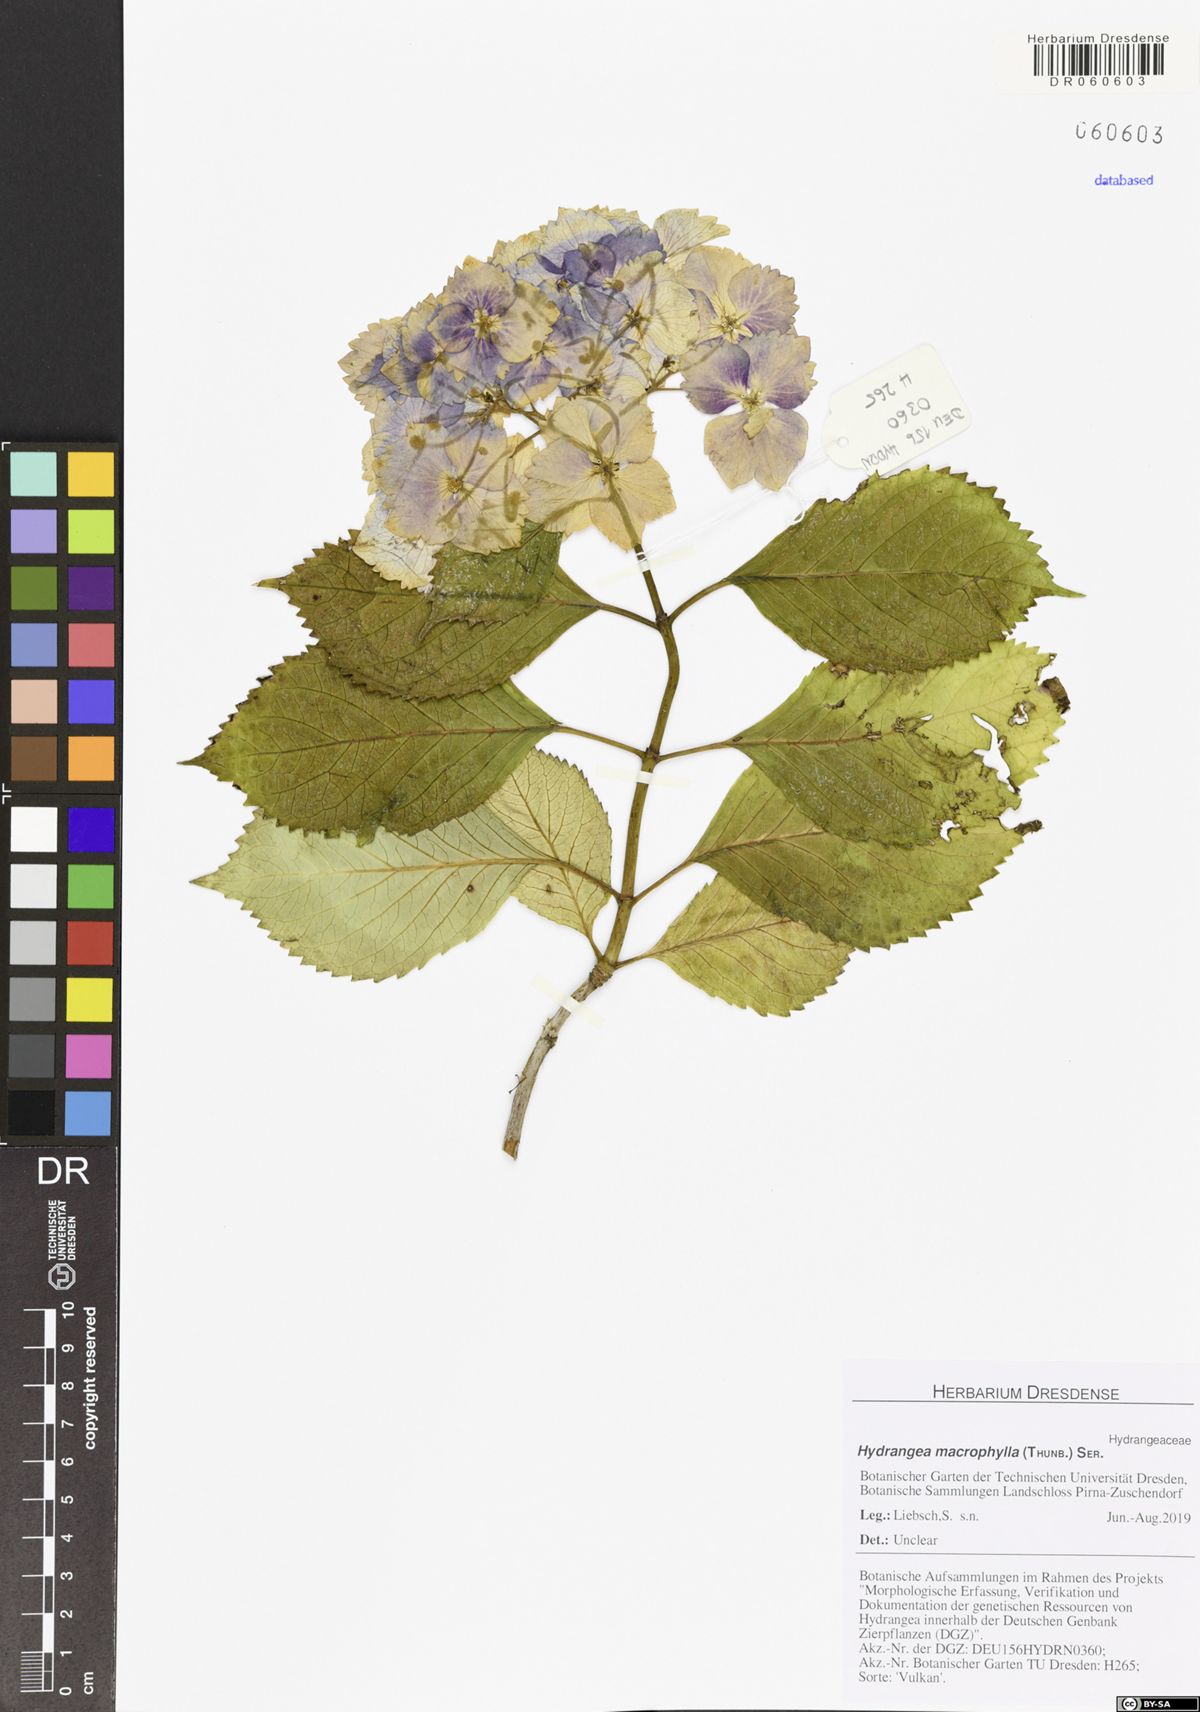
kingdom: Plantae
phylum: Tracheophyta
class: Magnoliopsida
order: Cornales
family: Hydrangeaceae
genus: Hydrangea
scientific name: Hydrangea macrophylla
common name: Hydrangea
